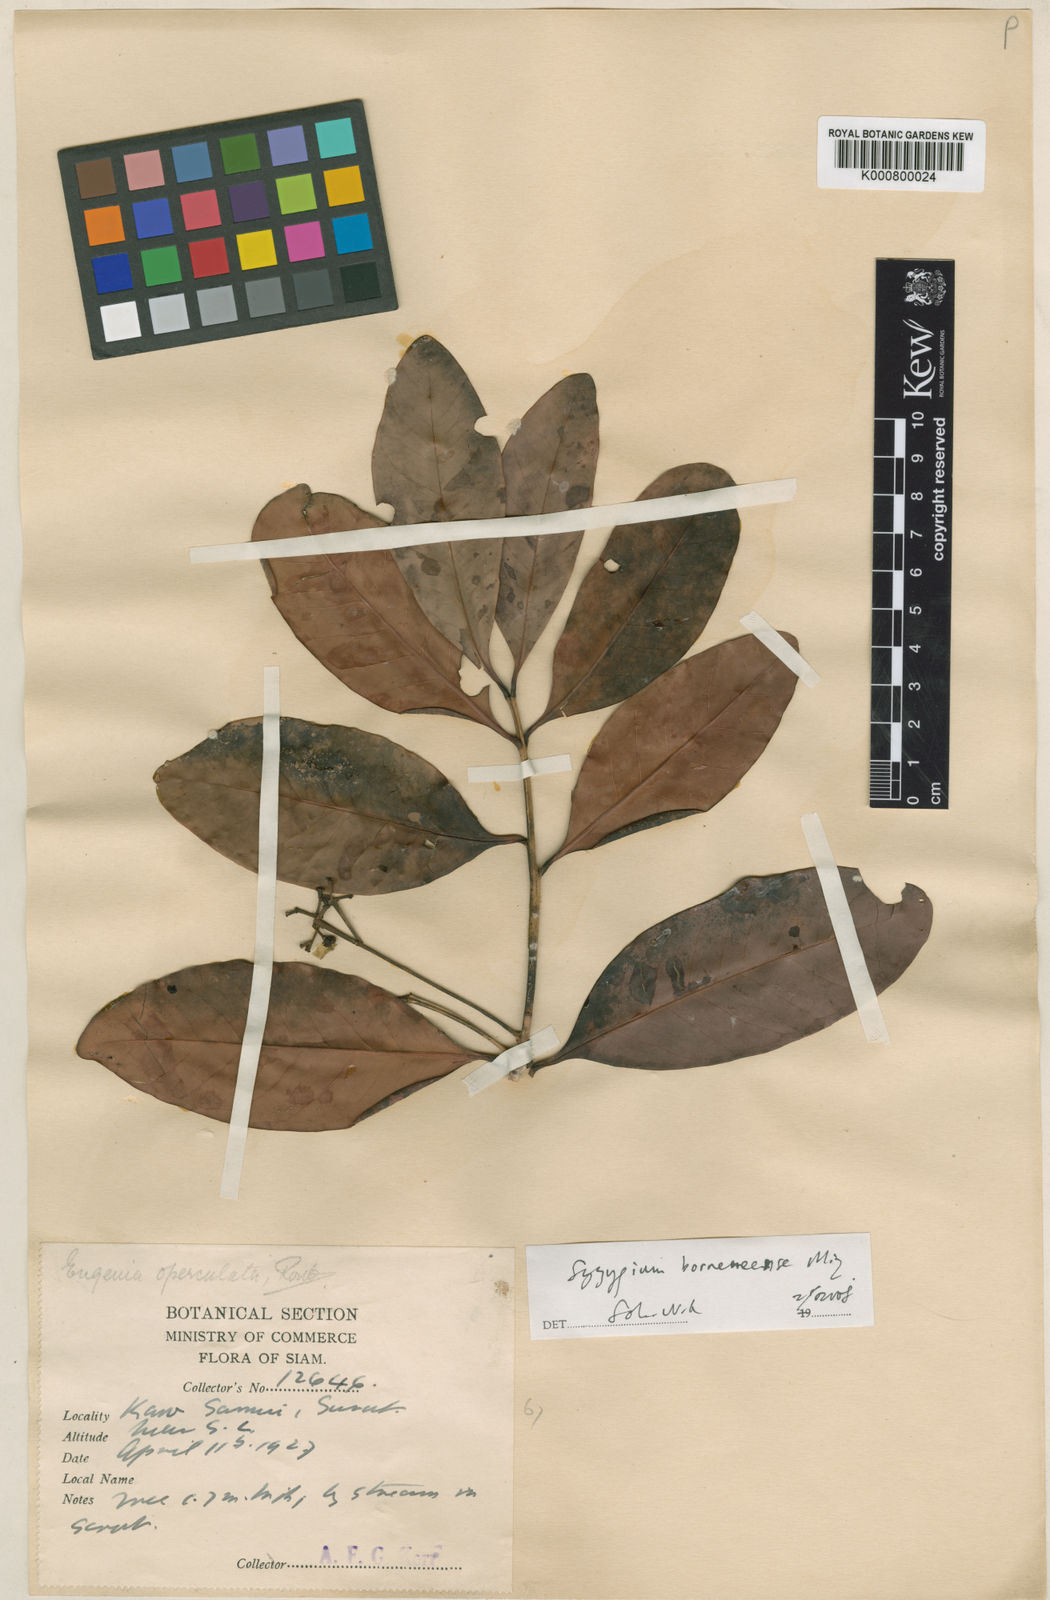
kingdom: Plantae
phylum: Tracheophyta
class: Magnoliopsida
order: Myrtales
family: Myrtaceae
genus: Syzygium
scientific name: Syzygium borneense
